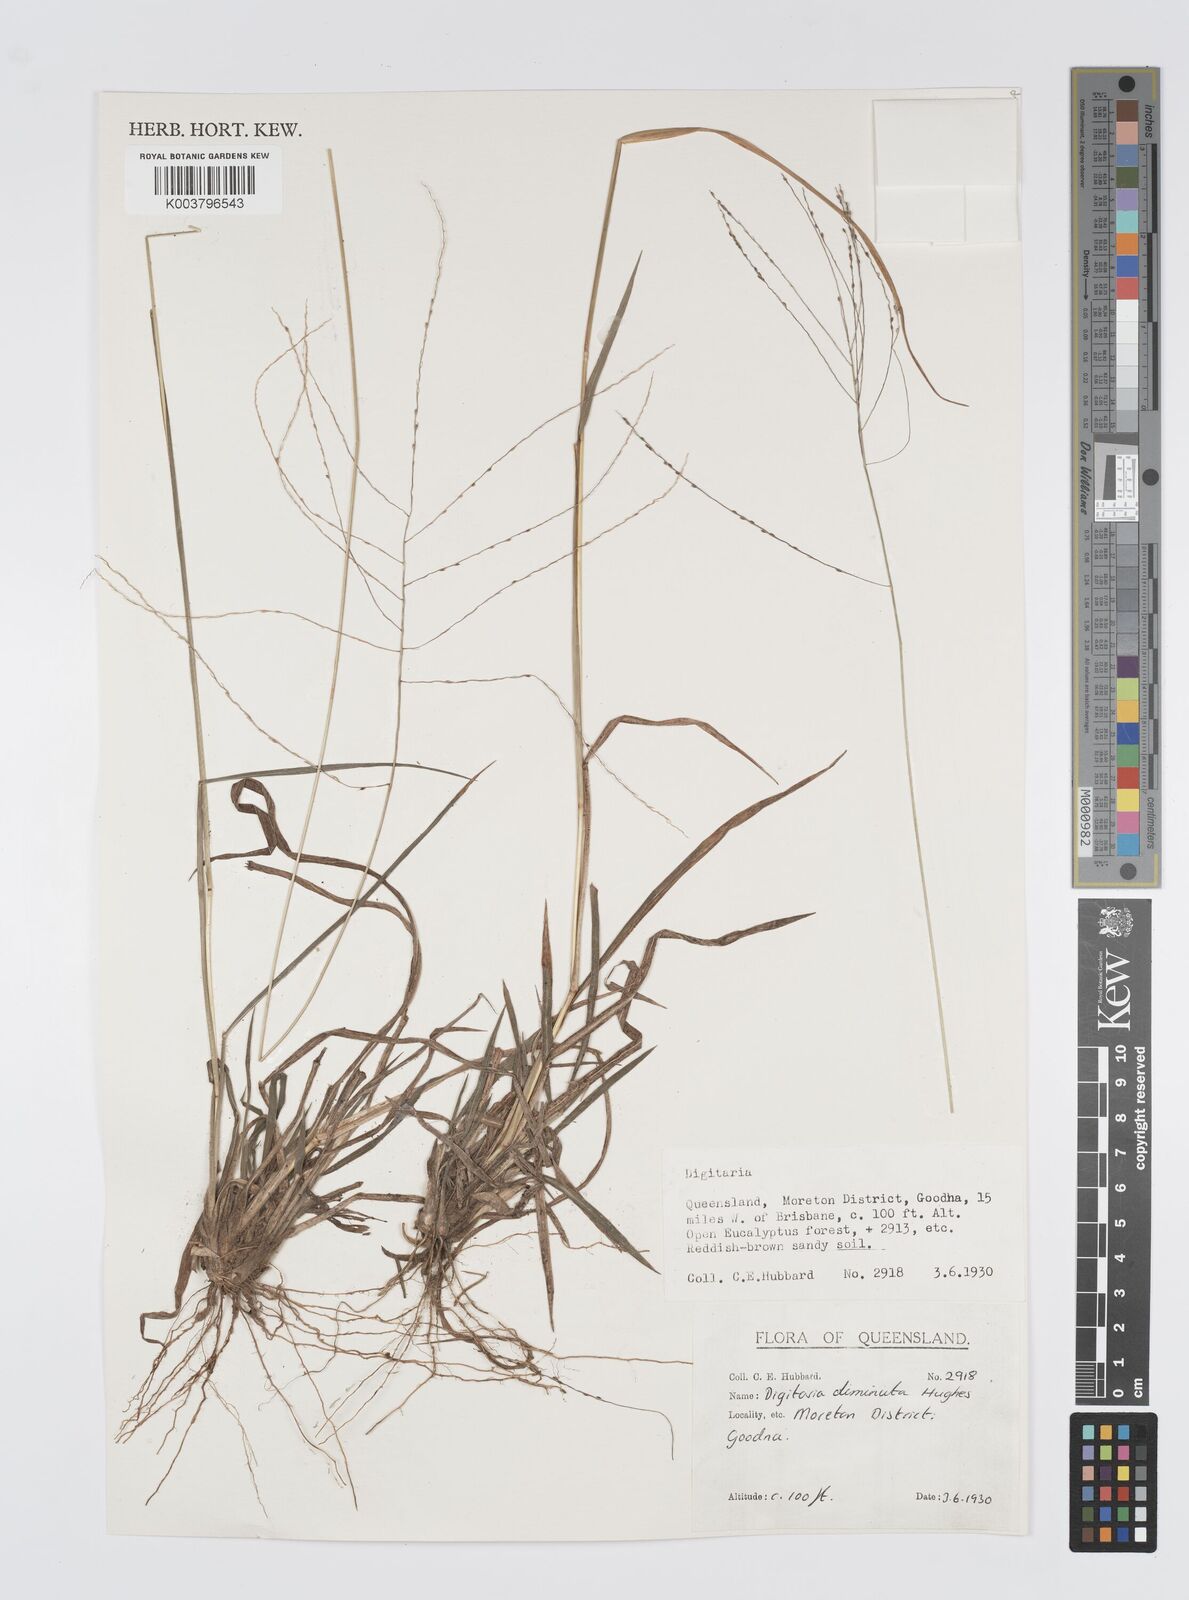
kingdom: Plantae
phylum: Tracheophyta
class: Liliopsida
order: Poales
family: Poaceae
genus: Digitaria
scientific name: Digitaria breviglumis
